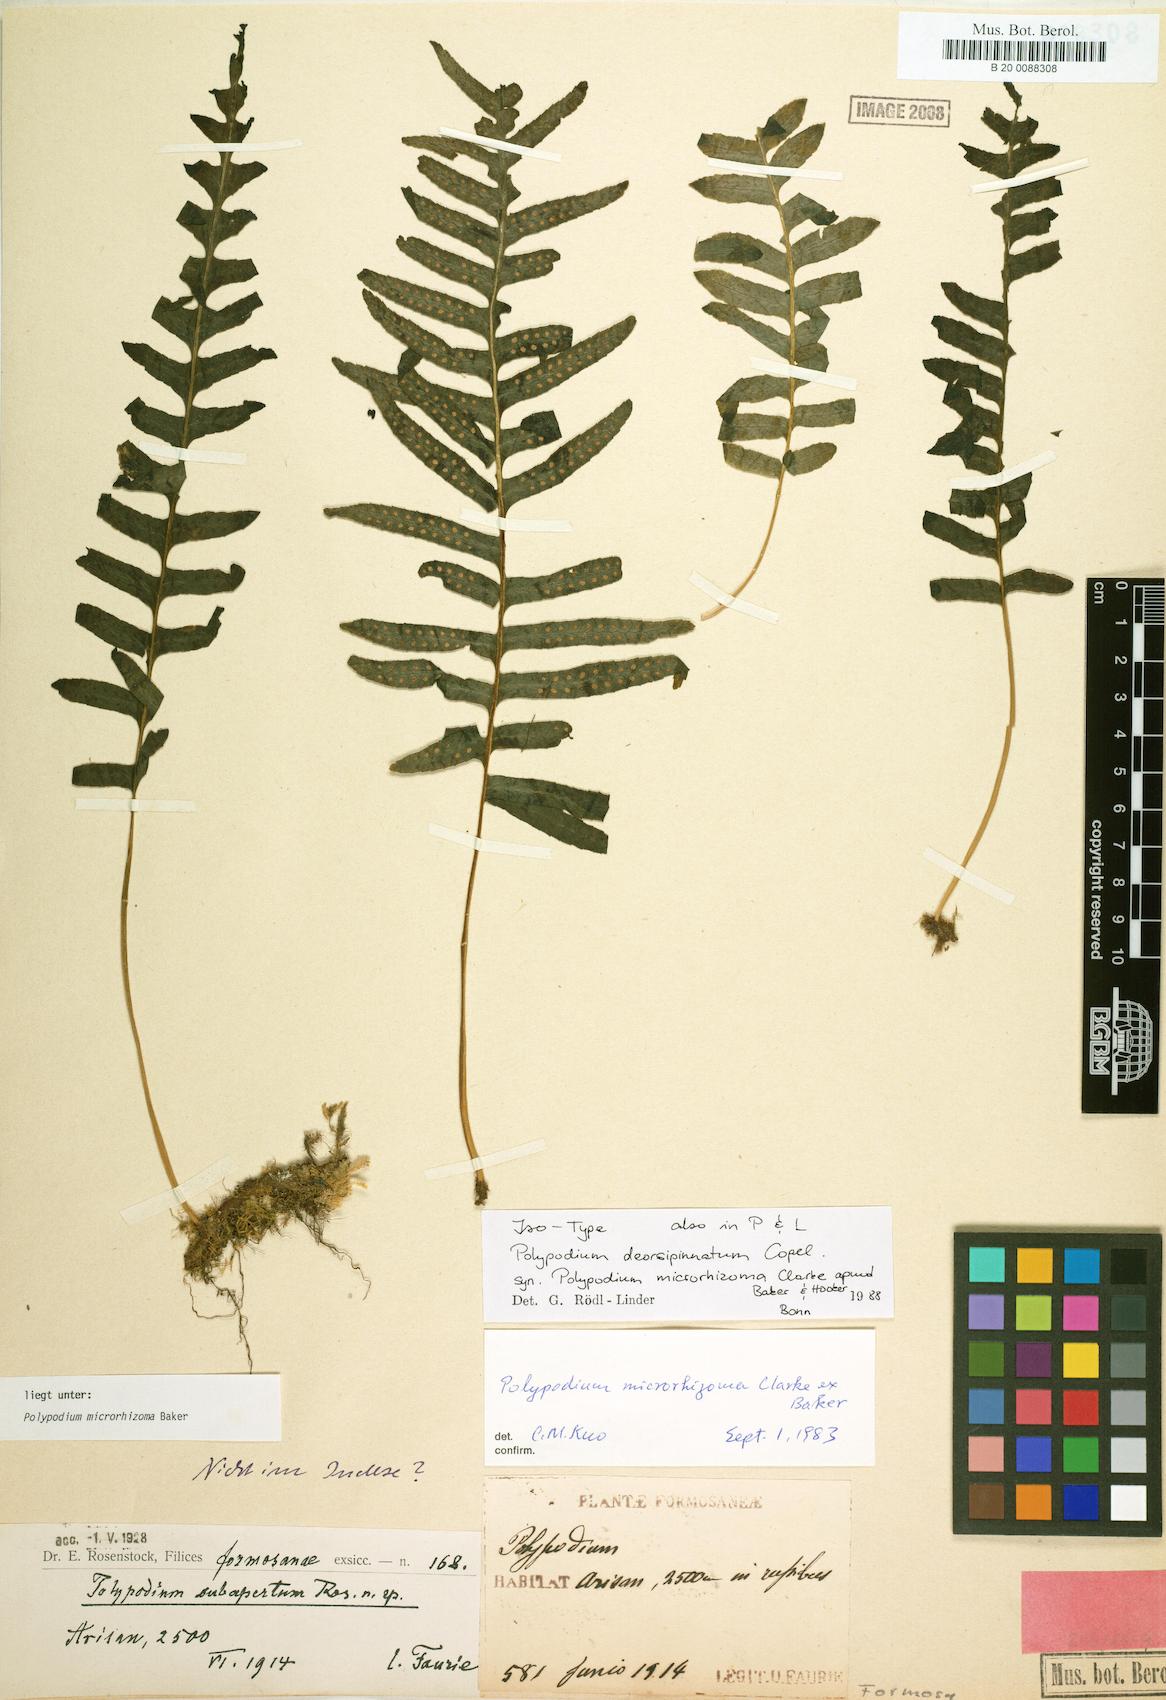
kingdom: Plantae
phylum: Tracheophyta
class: Polypodiopsida
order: Polypodiales
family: Polypodiaceae
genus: Goniophlebium
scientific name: Goniophlebium fieldingianum
